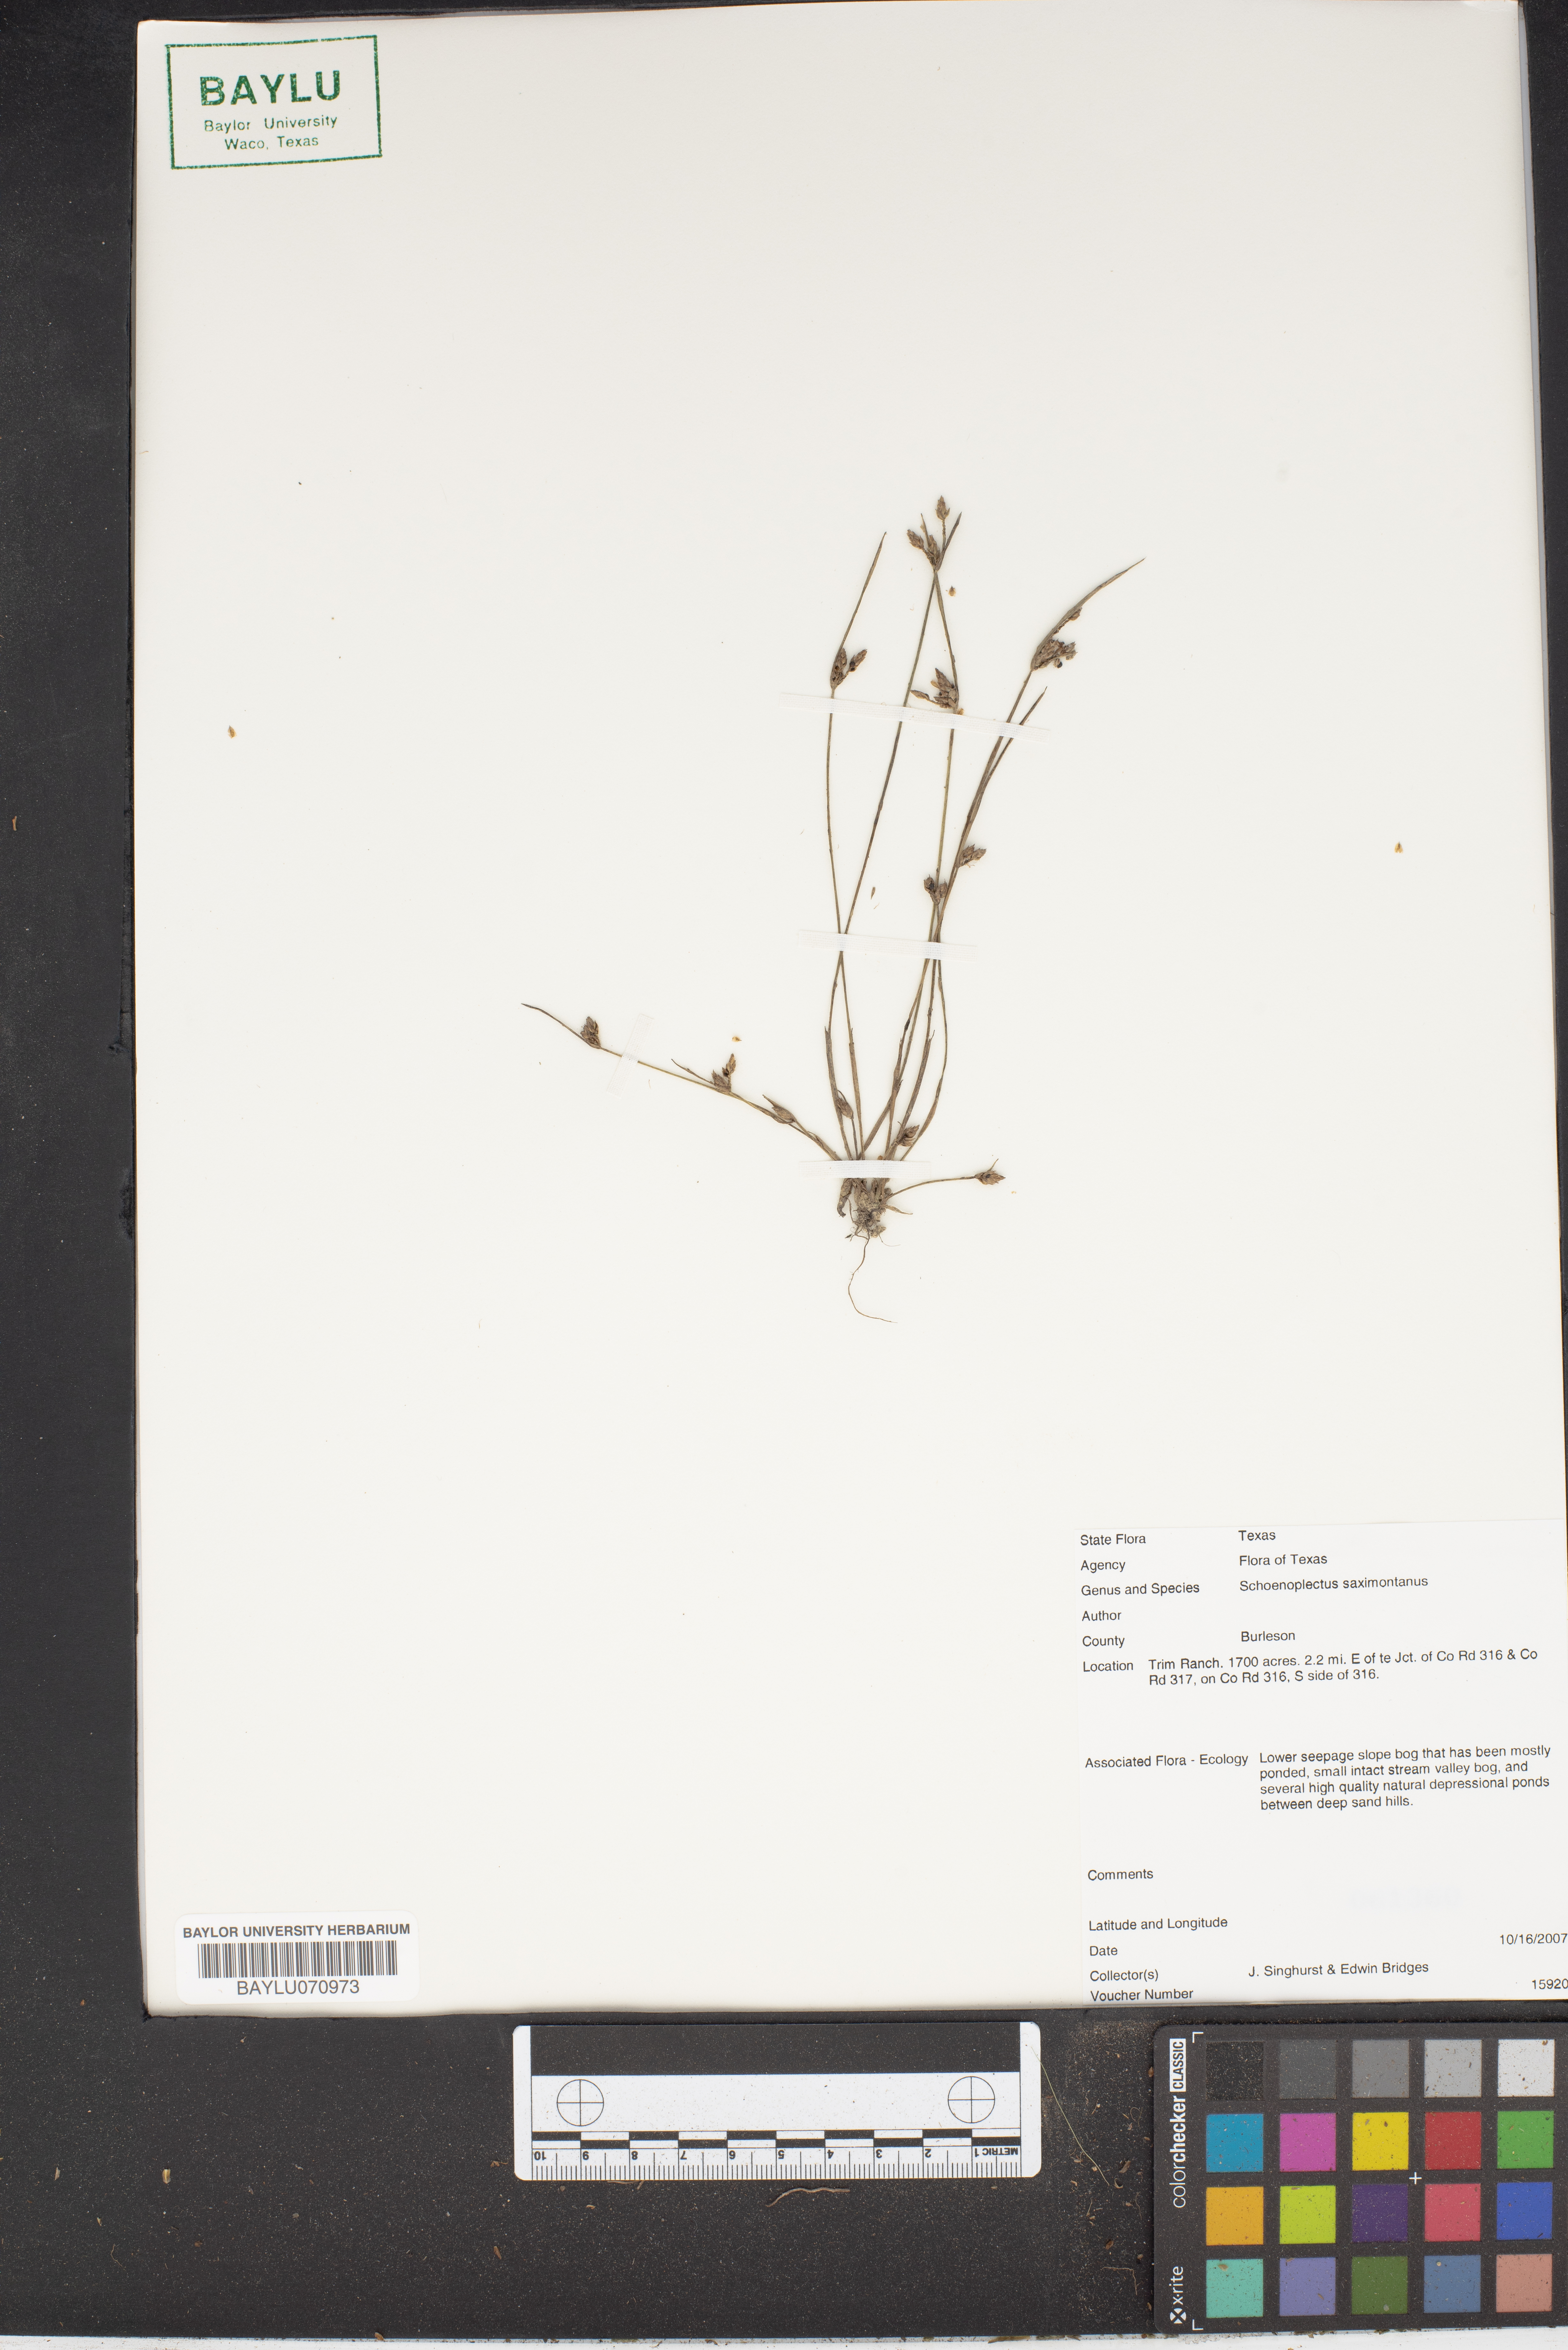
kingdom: Plantae
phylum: Tracheophyta
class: Liliopsida
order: Poales
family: Cyperaceae
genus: Schoenoplectiella
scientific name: Schoenoplectiella saximontana
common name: Rocky mountain clubrush
